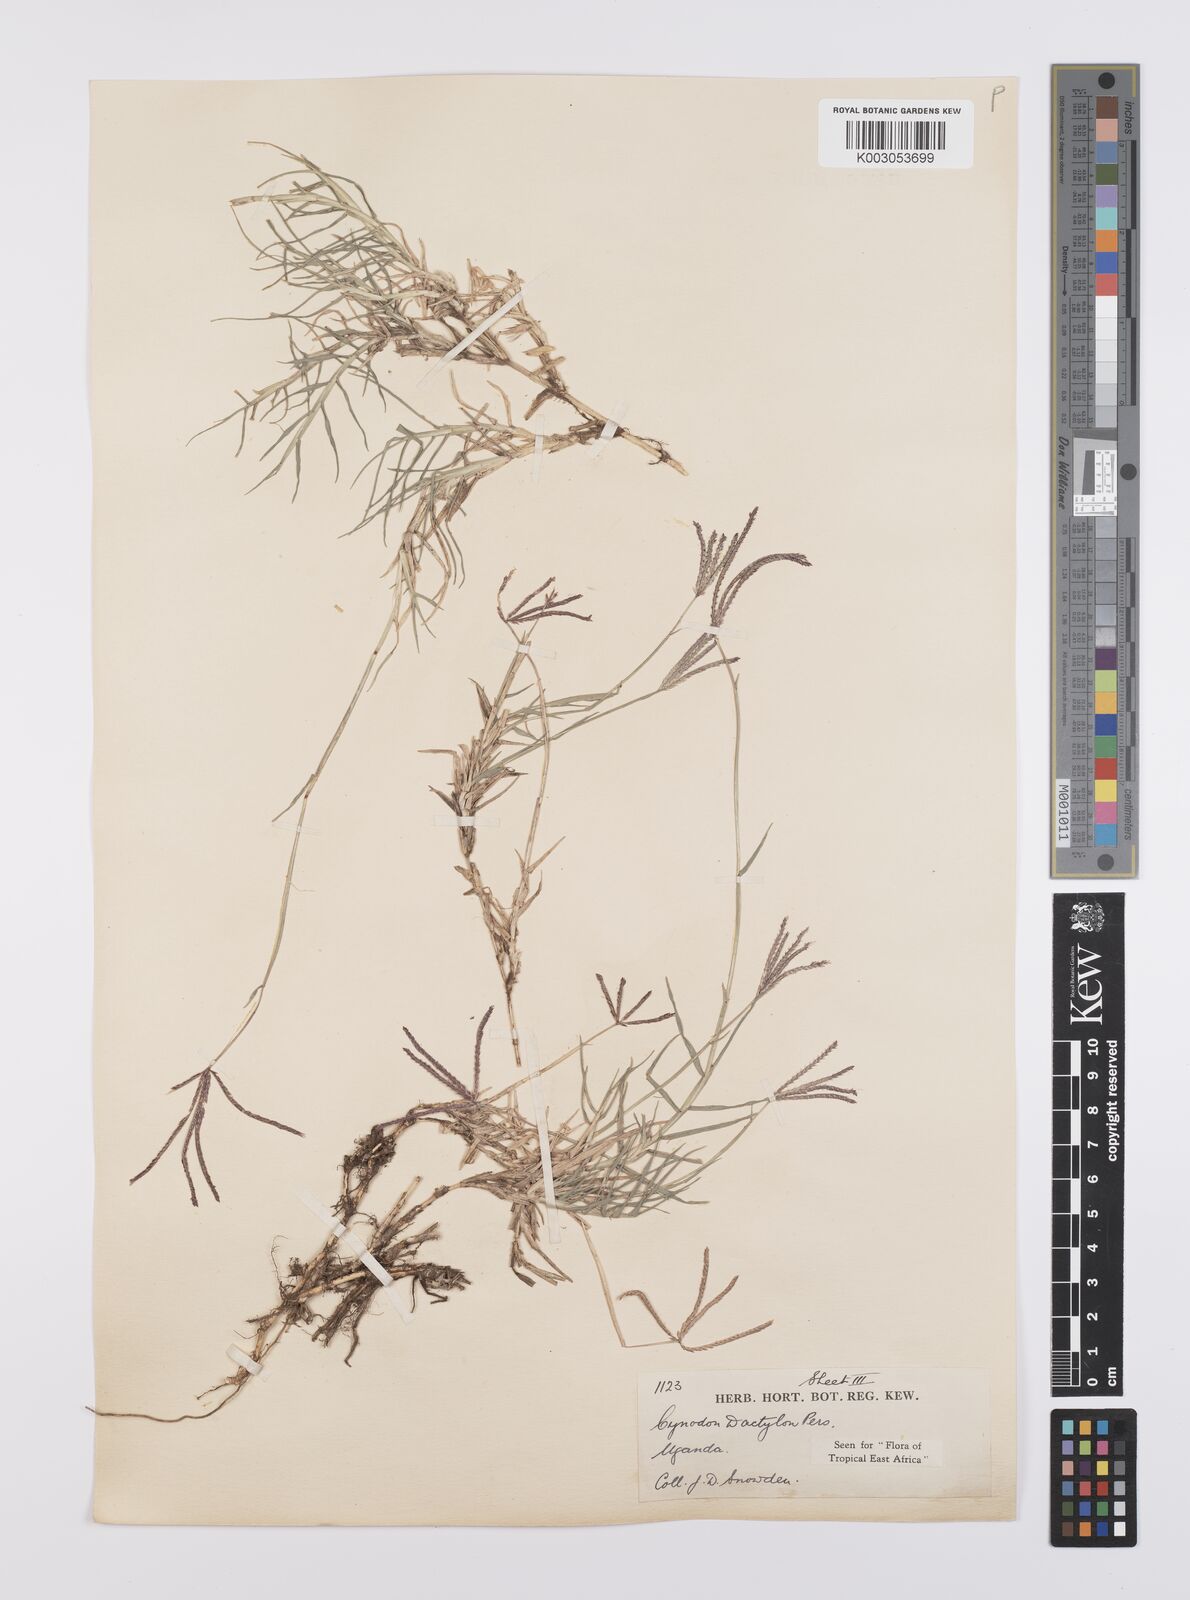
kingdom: Plantae
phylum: Tracheophyta
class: Liliopsida
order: Poales
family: Poaceae
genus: Cynodon
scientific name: Cynodon dactylon
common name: Bermuda grass
